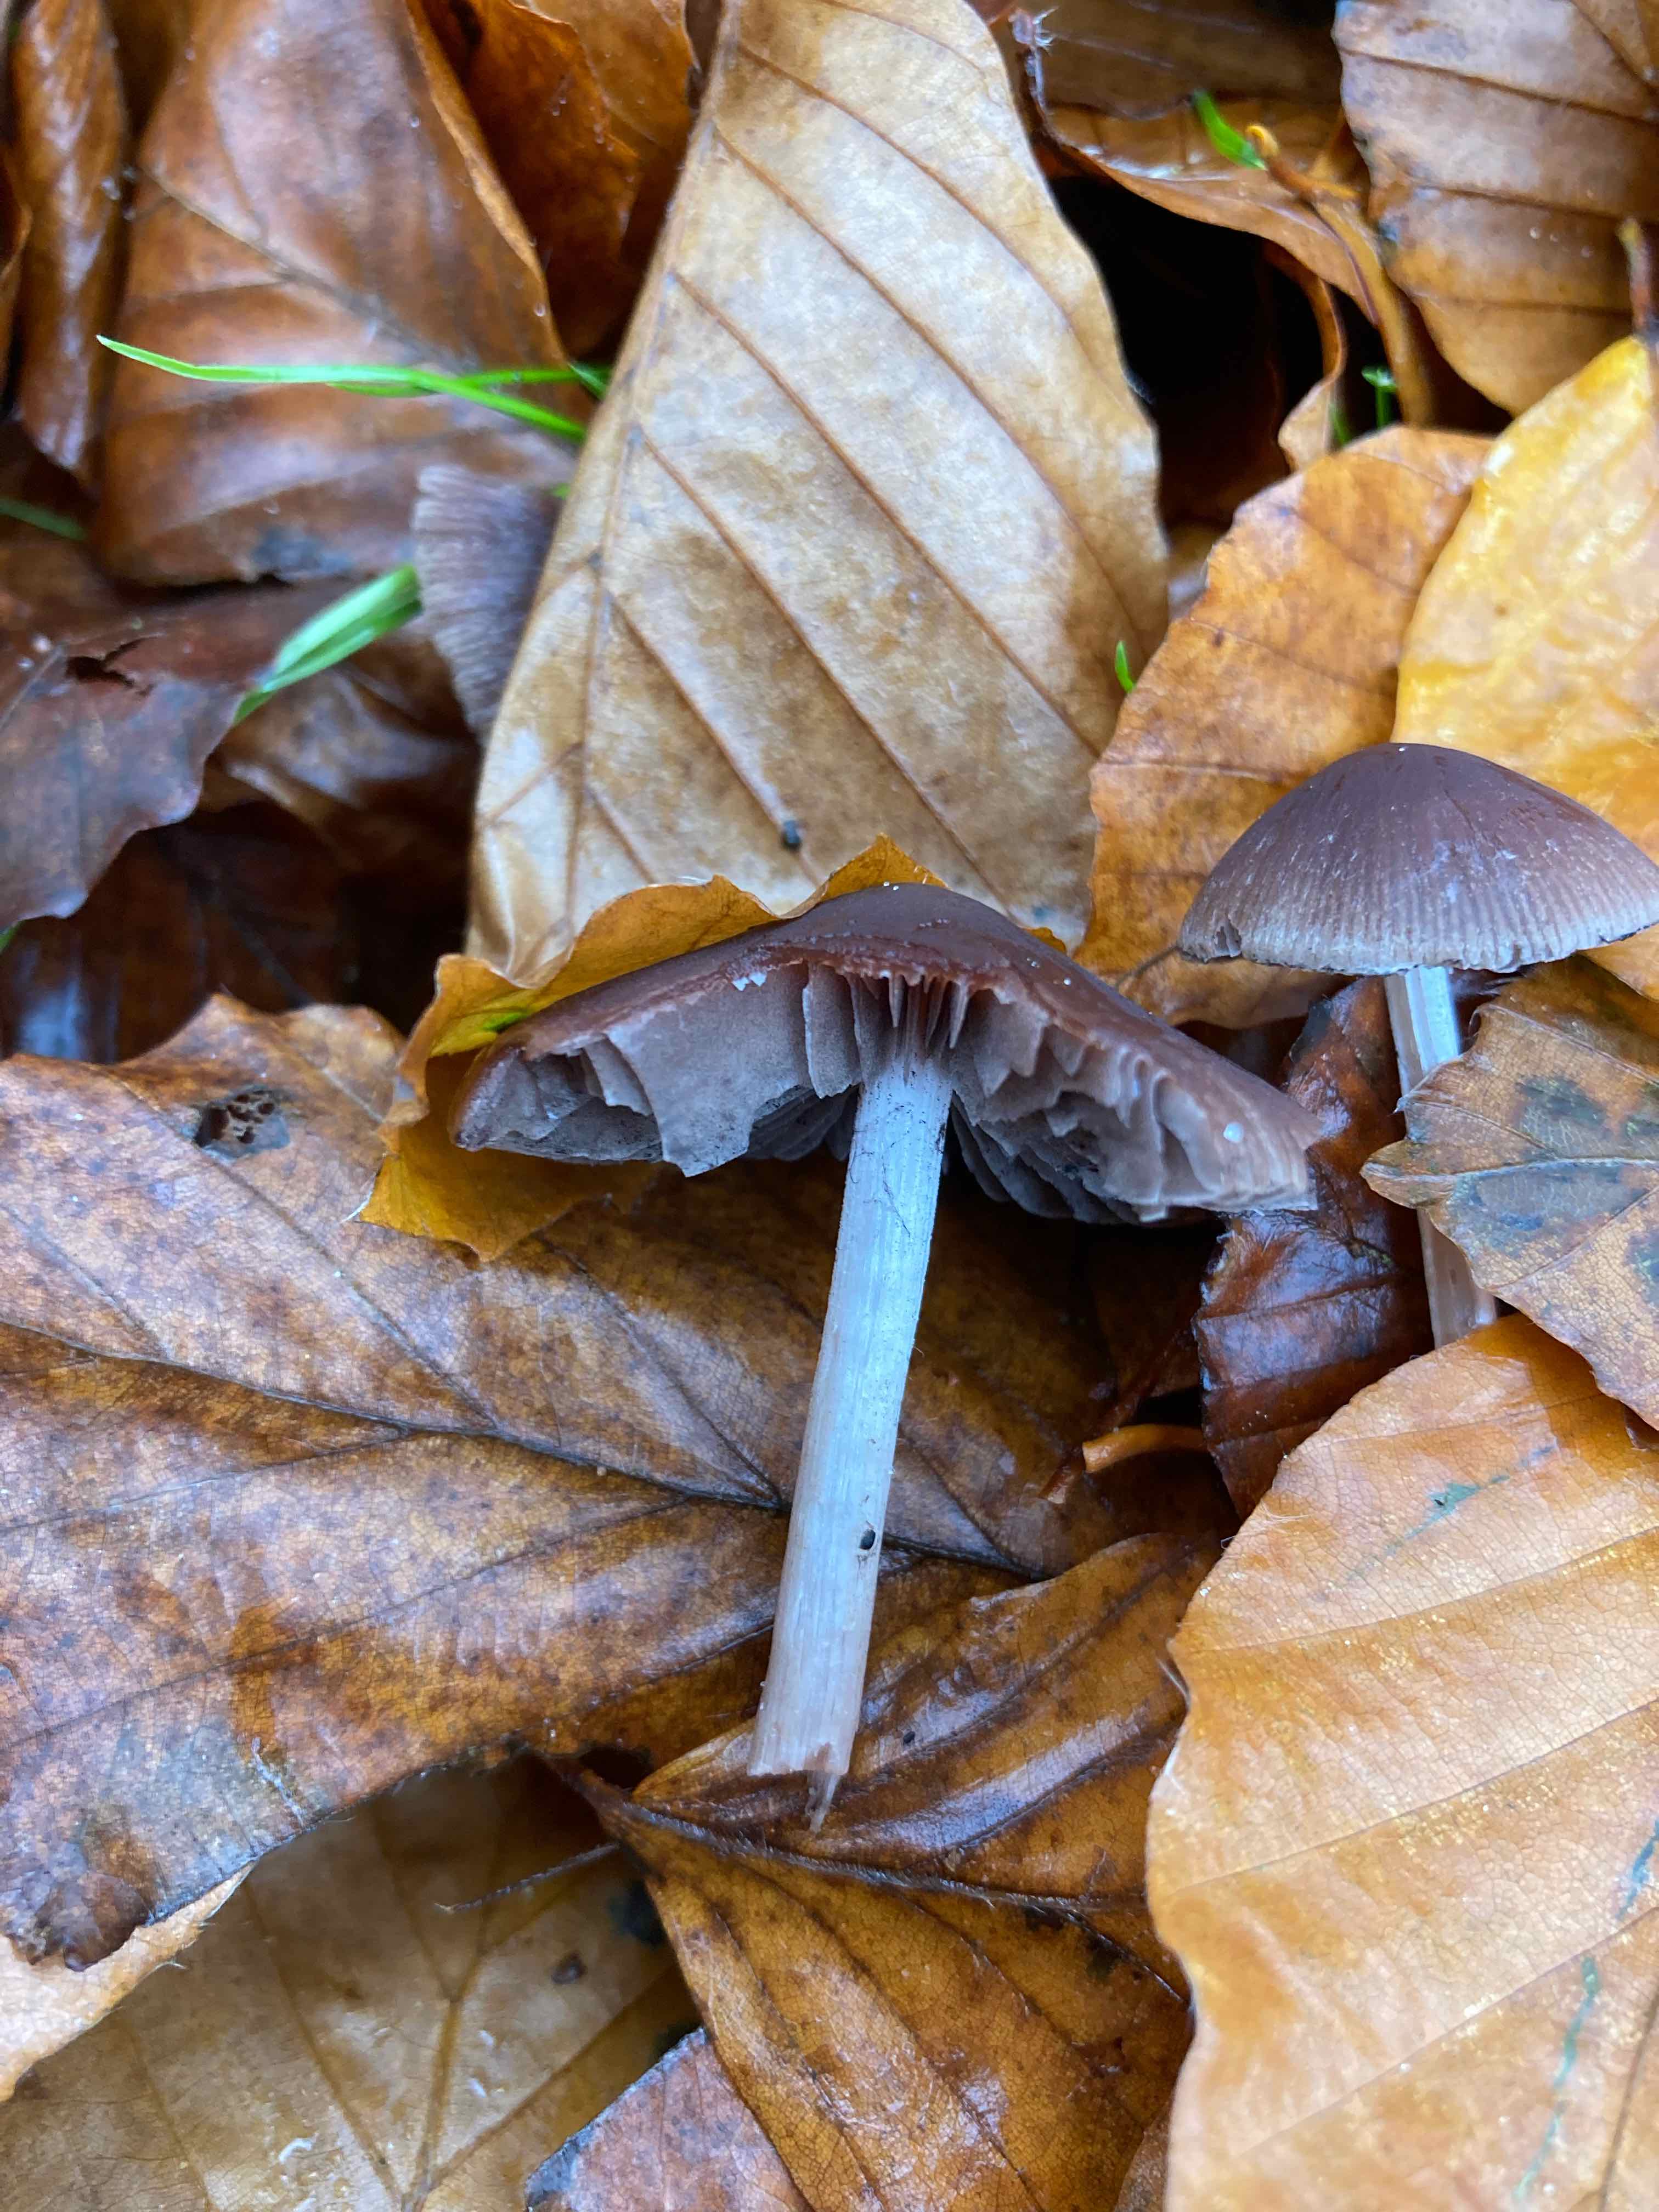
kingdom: Fungi
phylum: Basidiomycota
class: Agaricomycetes
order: Agaricales
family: Psathyrellaceae
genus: Psathyrella
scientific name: Psathyrella bipellis
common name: vinrød mørkhat
